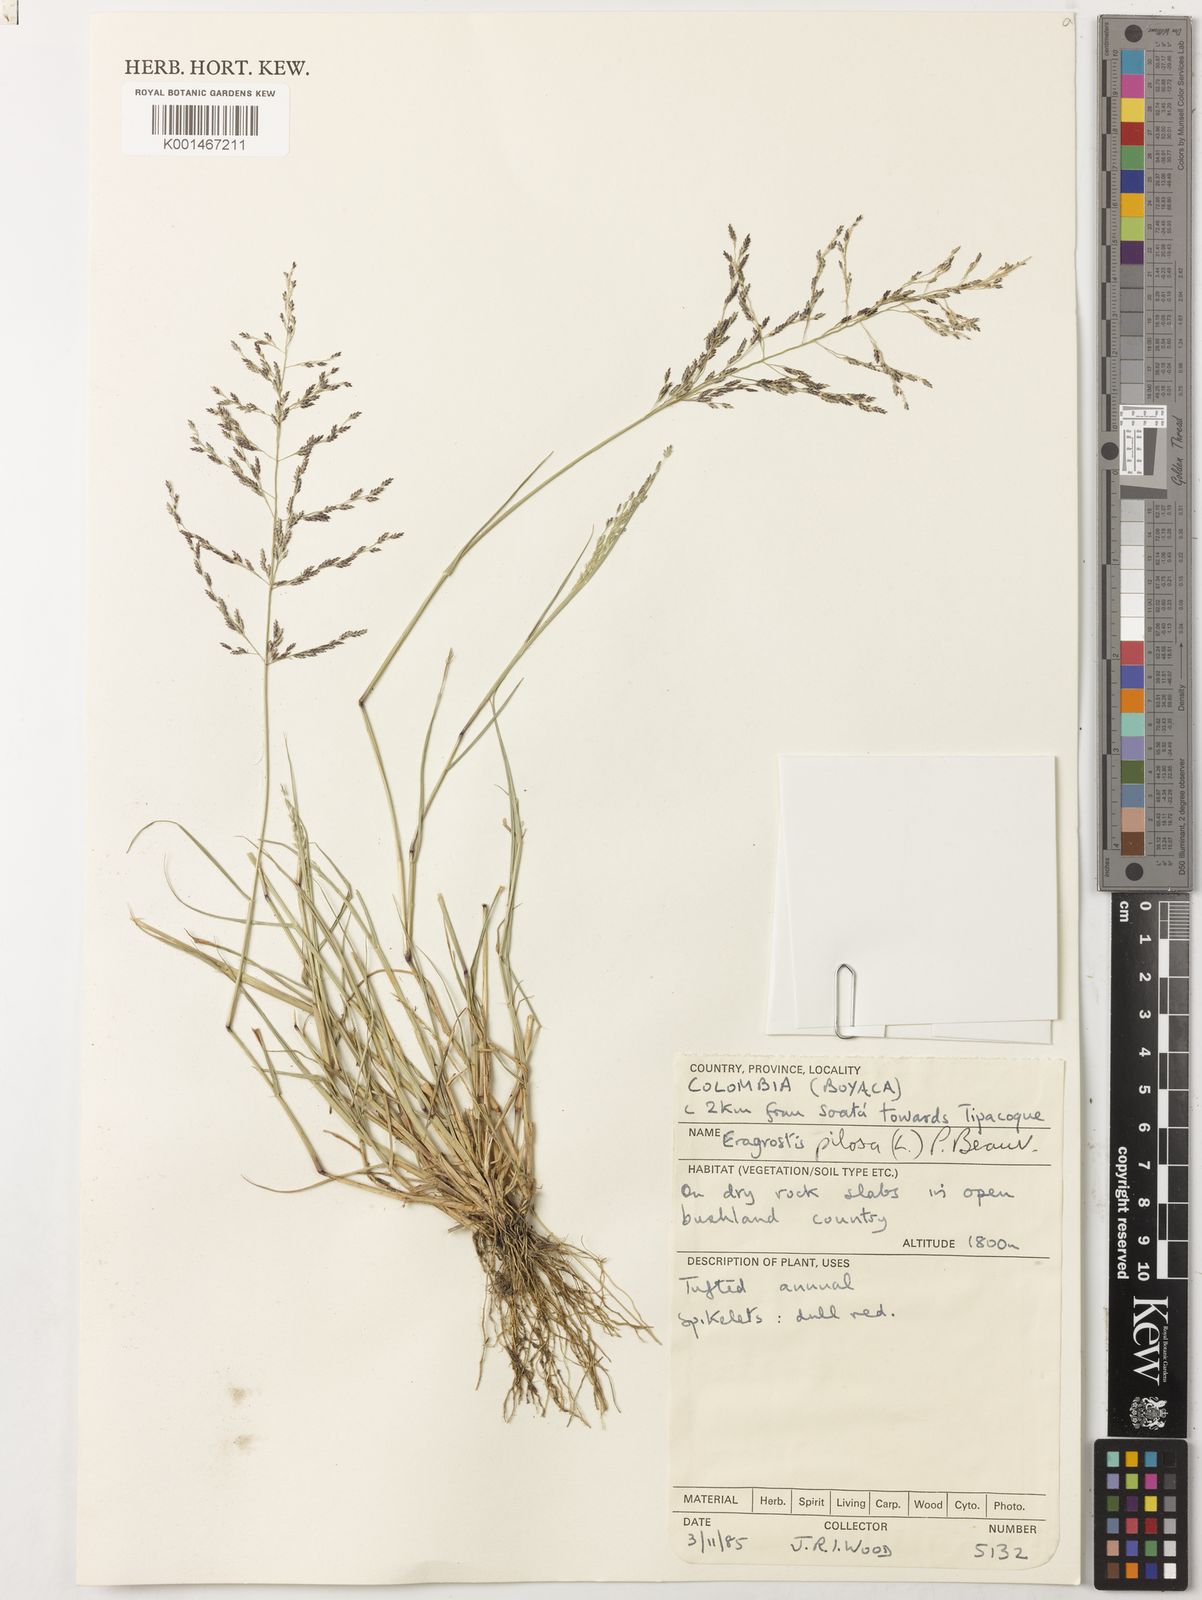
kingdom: Plantae
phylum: Tracheophyta
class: Liliopsida
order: Poales
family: Poaceae
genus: Eragrostis
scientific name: Eragrostis pilosa
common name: Indian lovegrass
